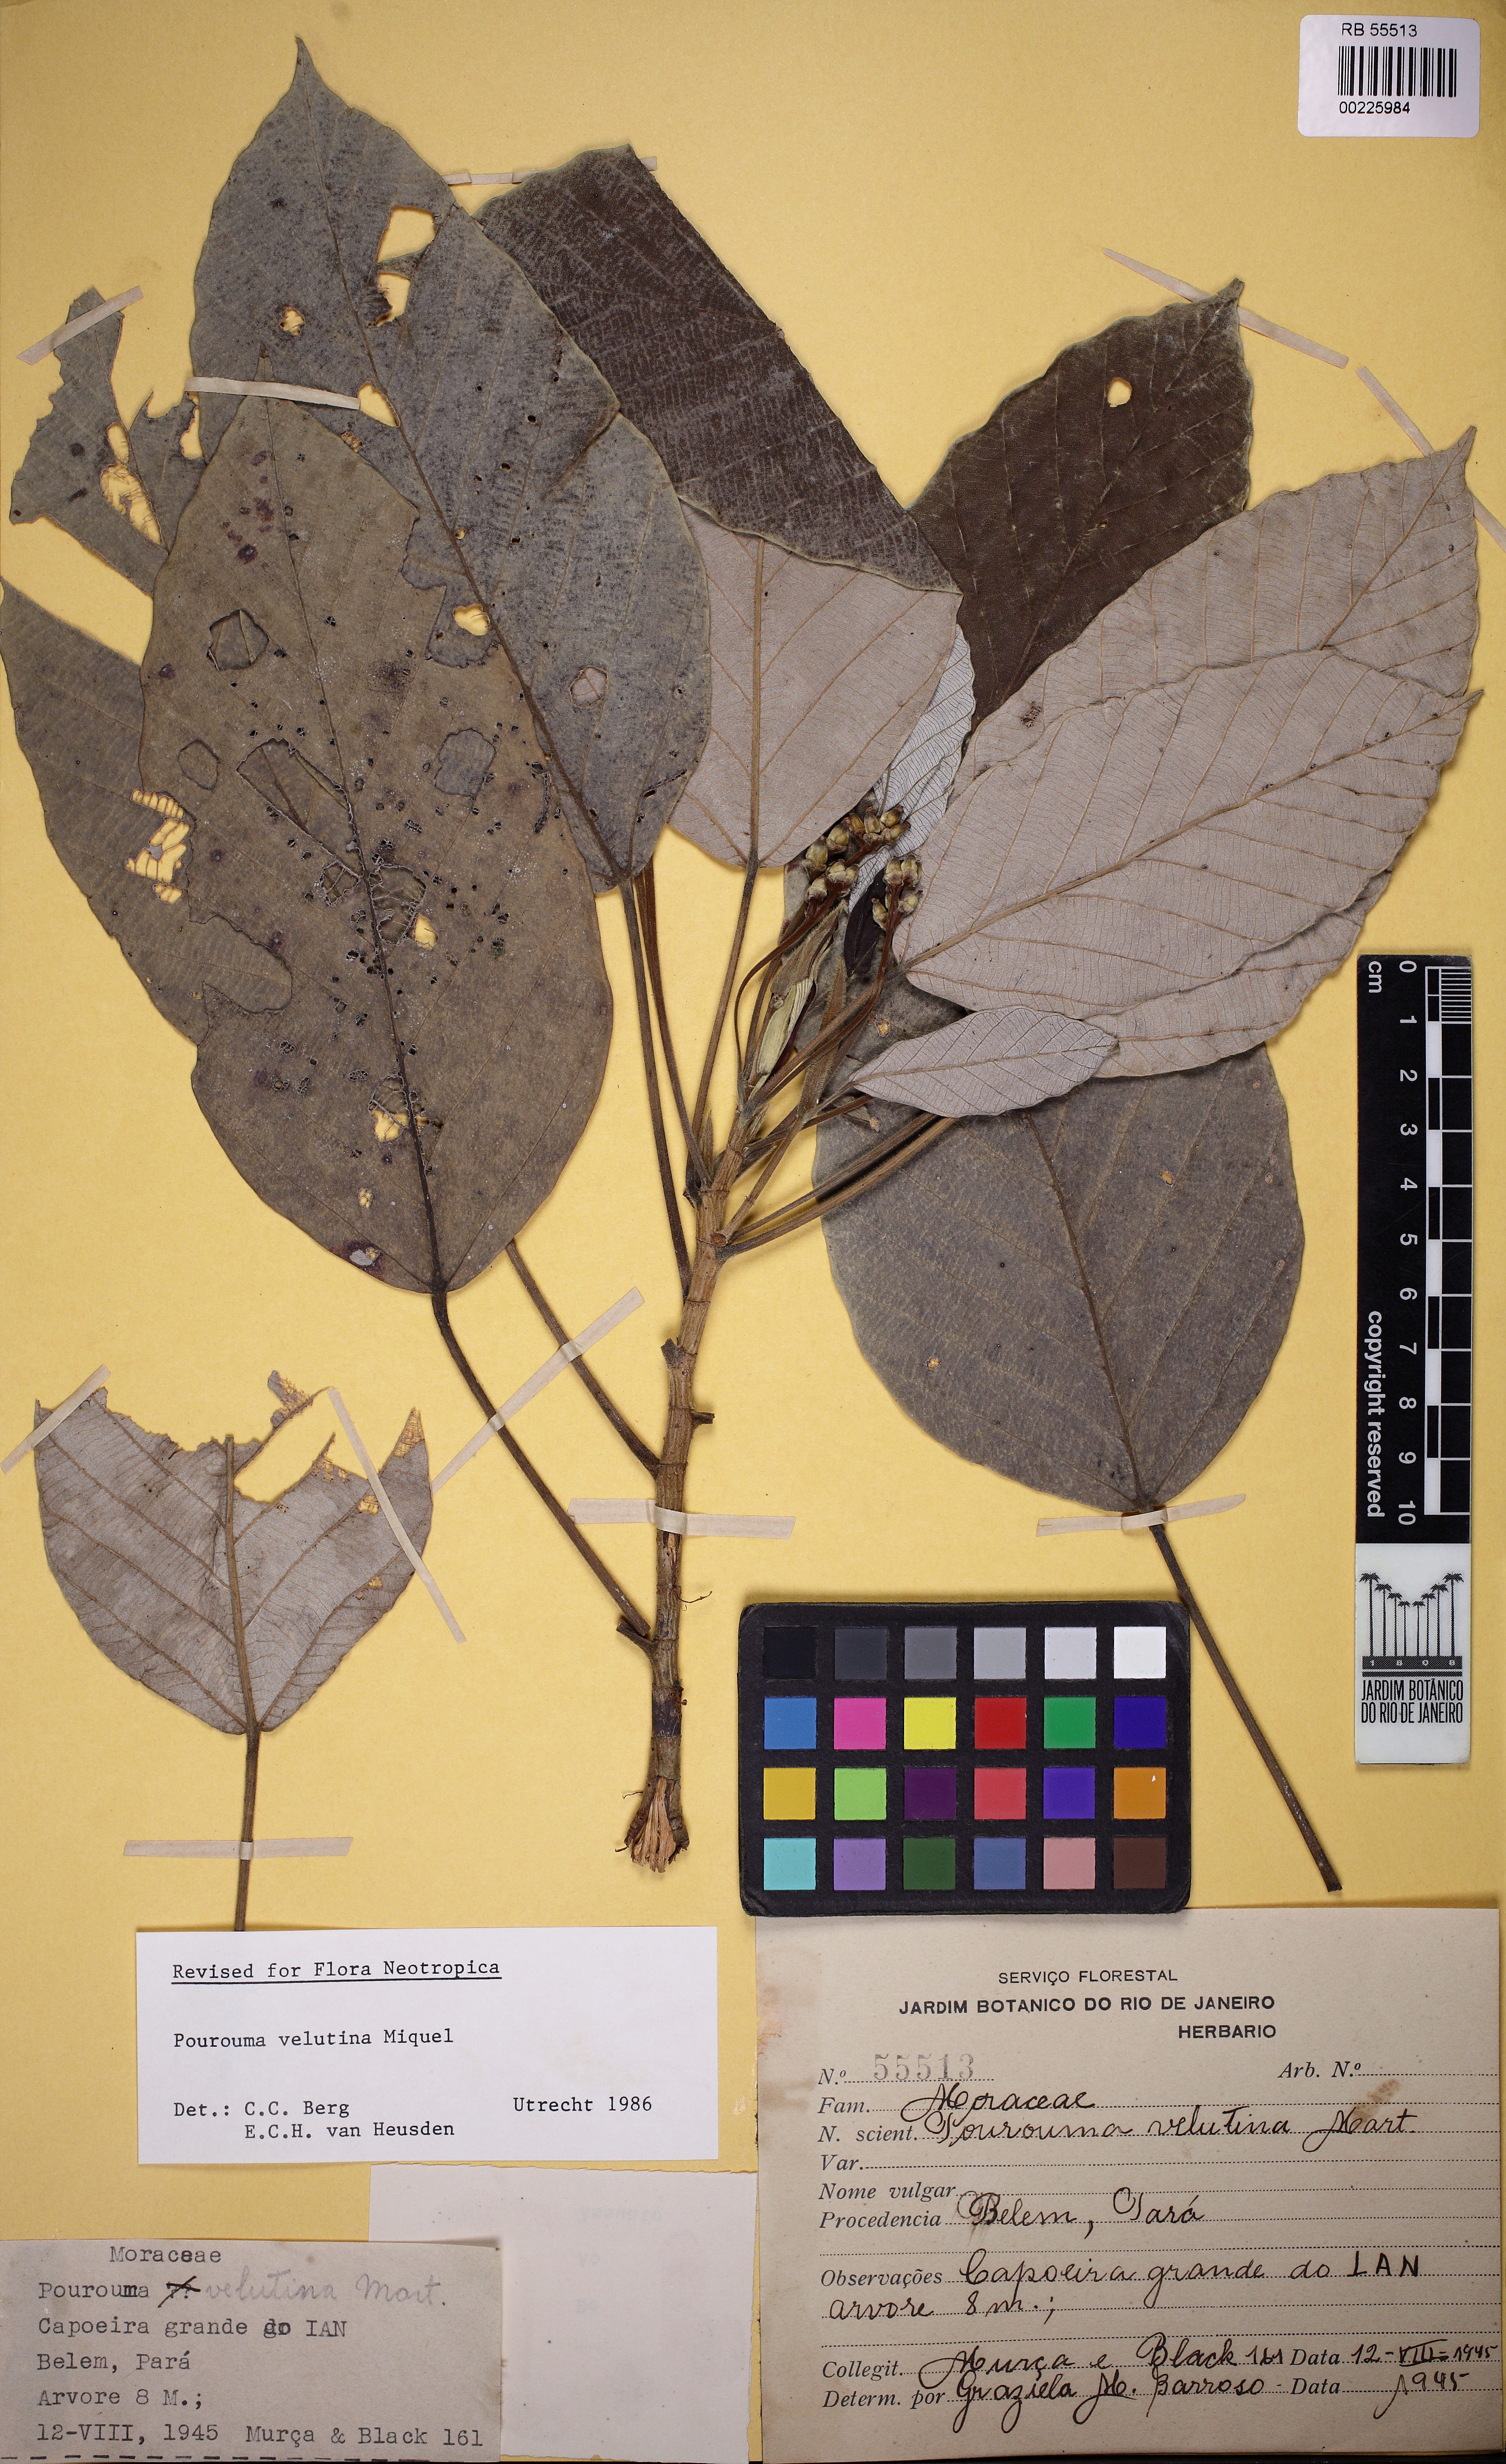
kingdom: Plantae
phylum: Tracheophyta
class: Magnoliopsida
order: Rosales
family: Urticaceae
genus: Pourouma
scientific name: Pourouma velutina
